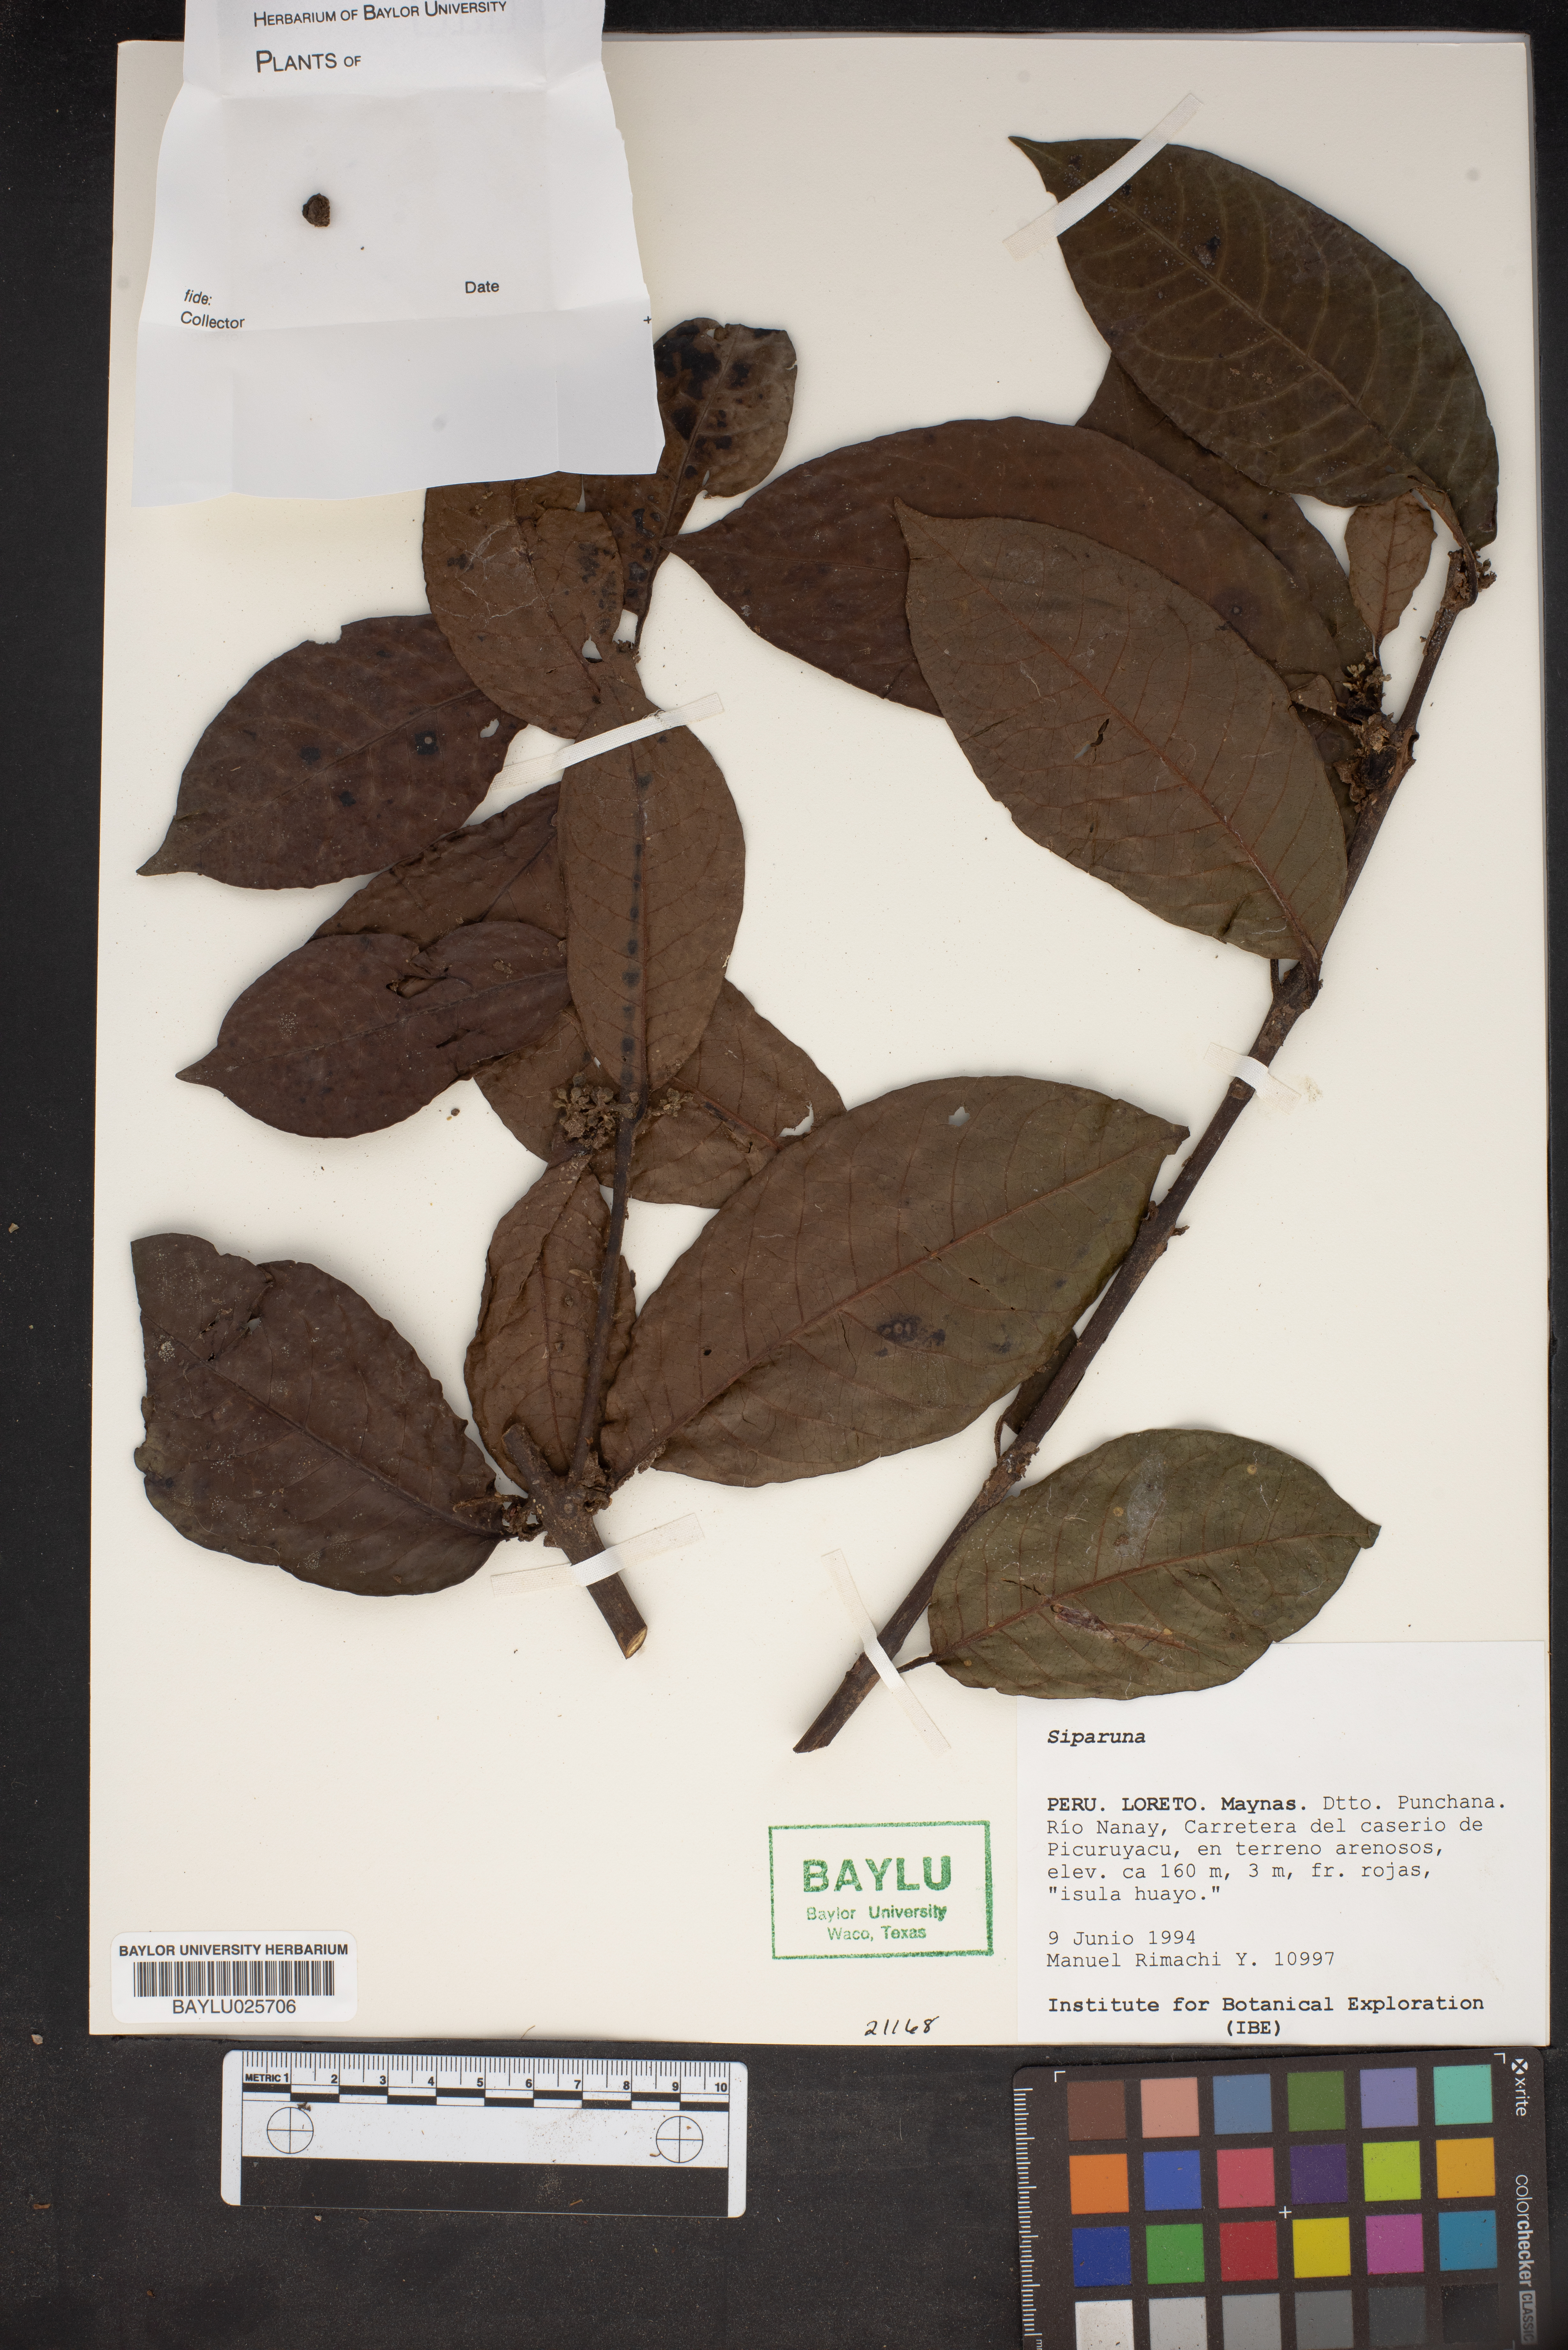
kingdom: Plantae
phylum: Tracheophyta
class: Magnoliopsida
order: Laurales
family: Siparunaceae
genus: Siparuna
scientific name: Siparuna
